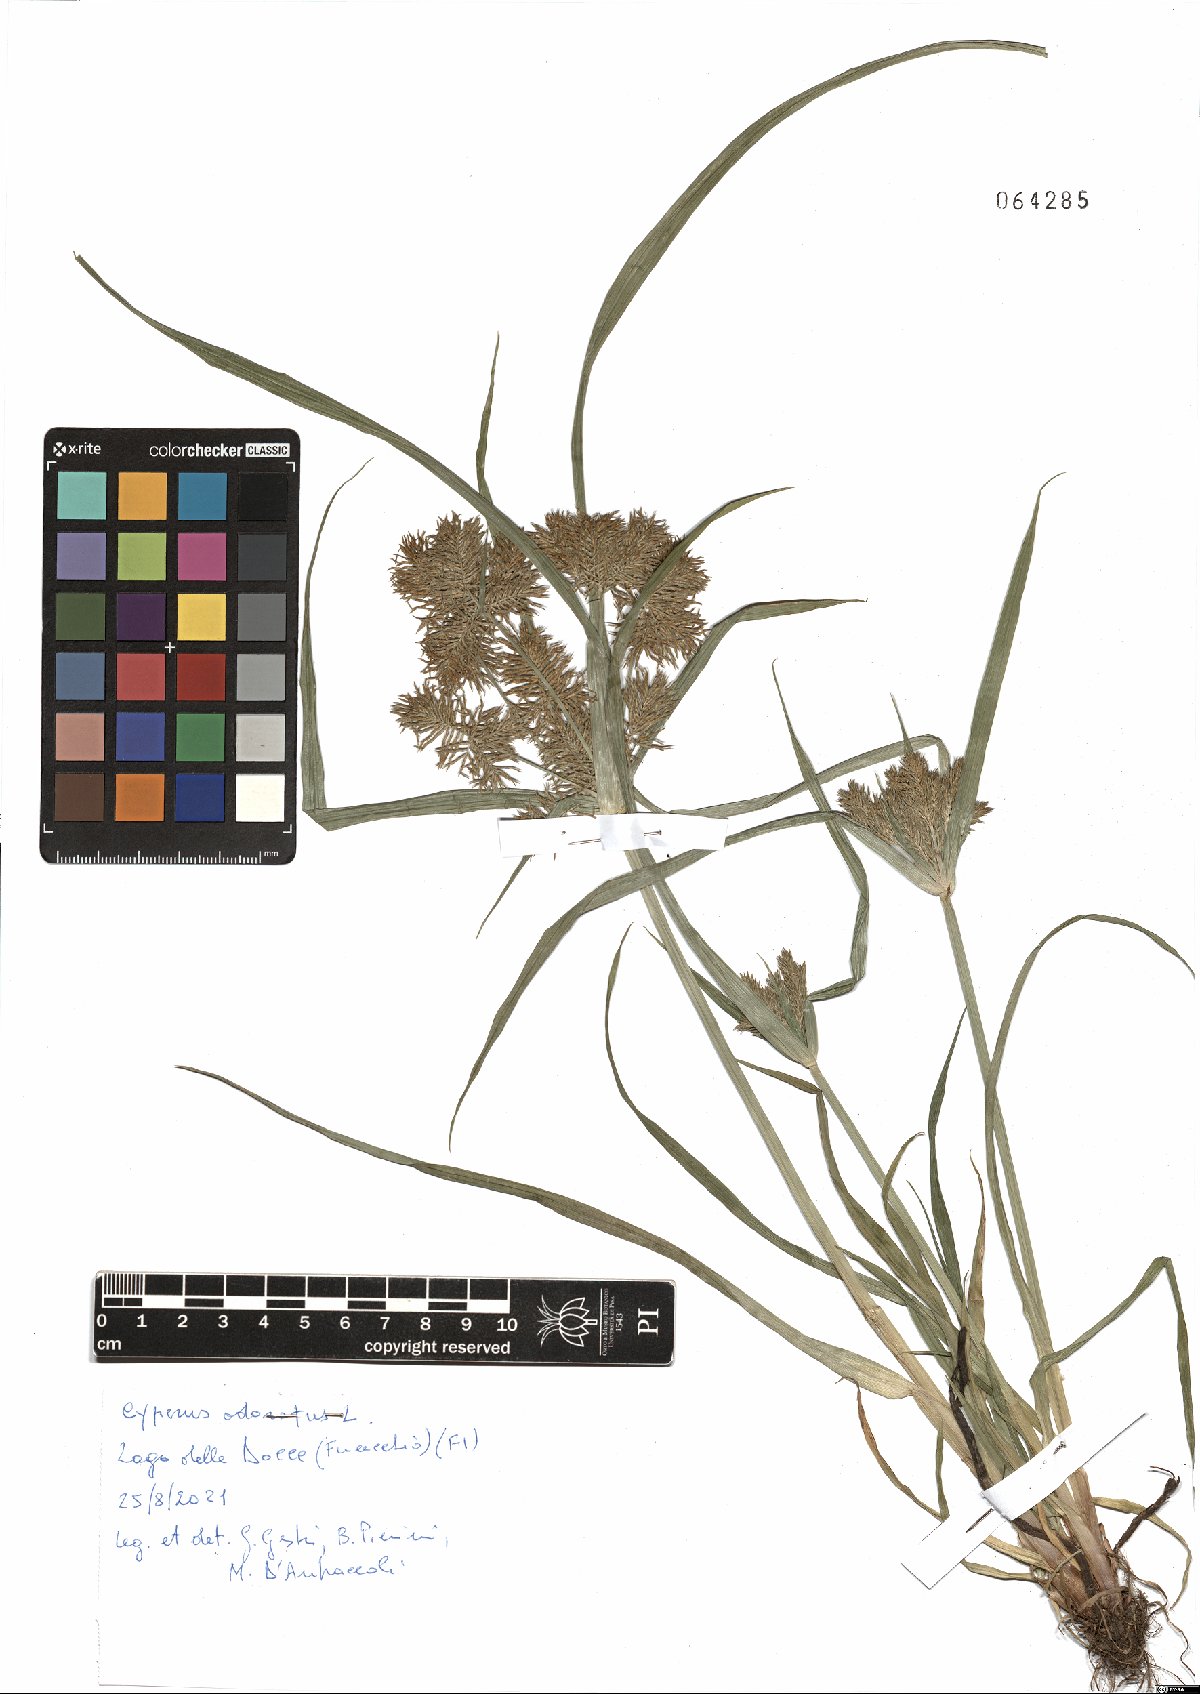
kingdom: Plantae
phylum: Tracheophyta
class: Liliopsida
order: Poales
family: Cyperaceae
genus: Cyperus
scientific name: Cyperus odoratus
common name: Fragrant flatsedge
